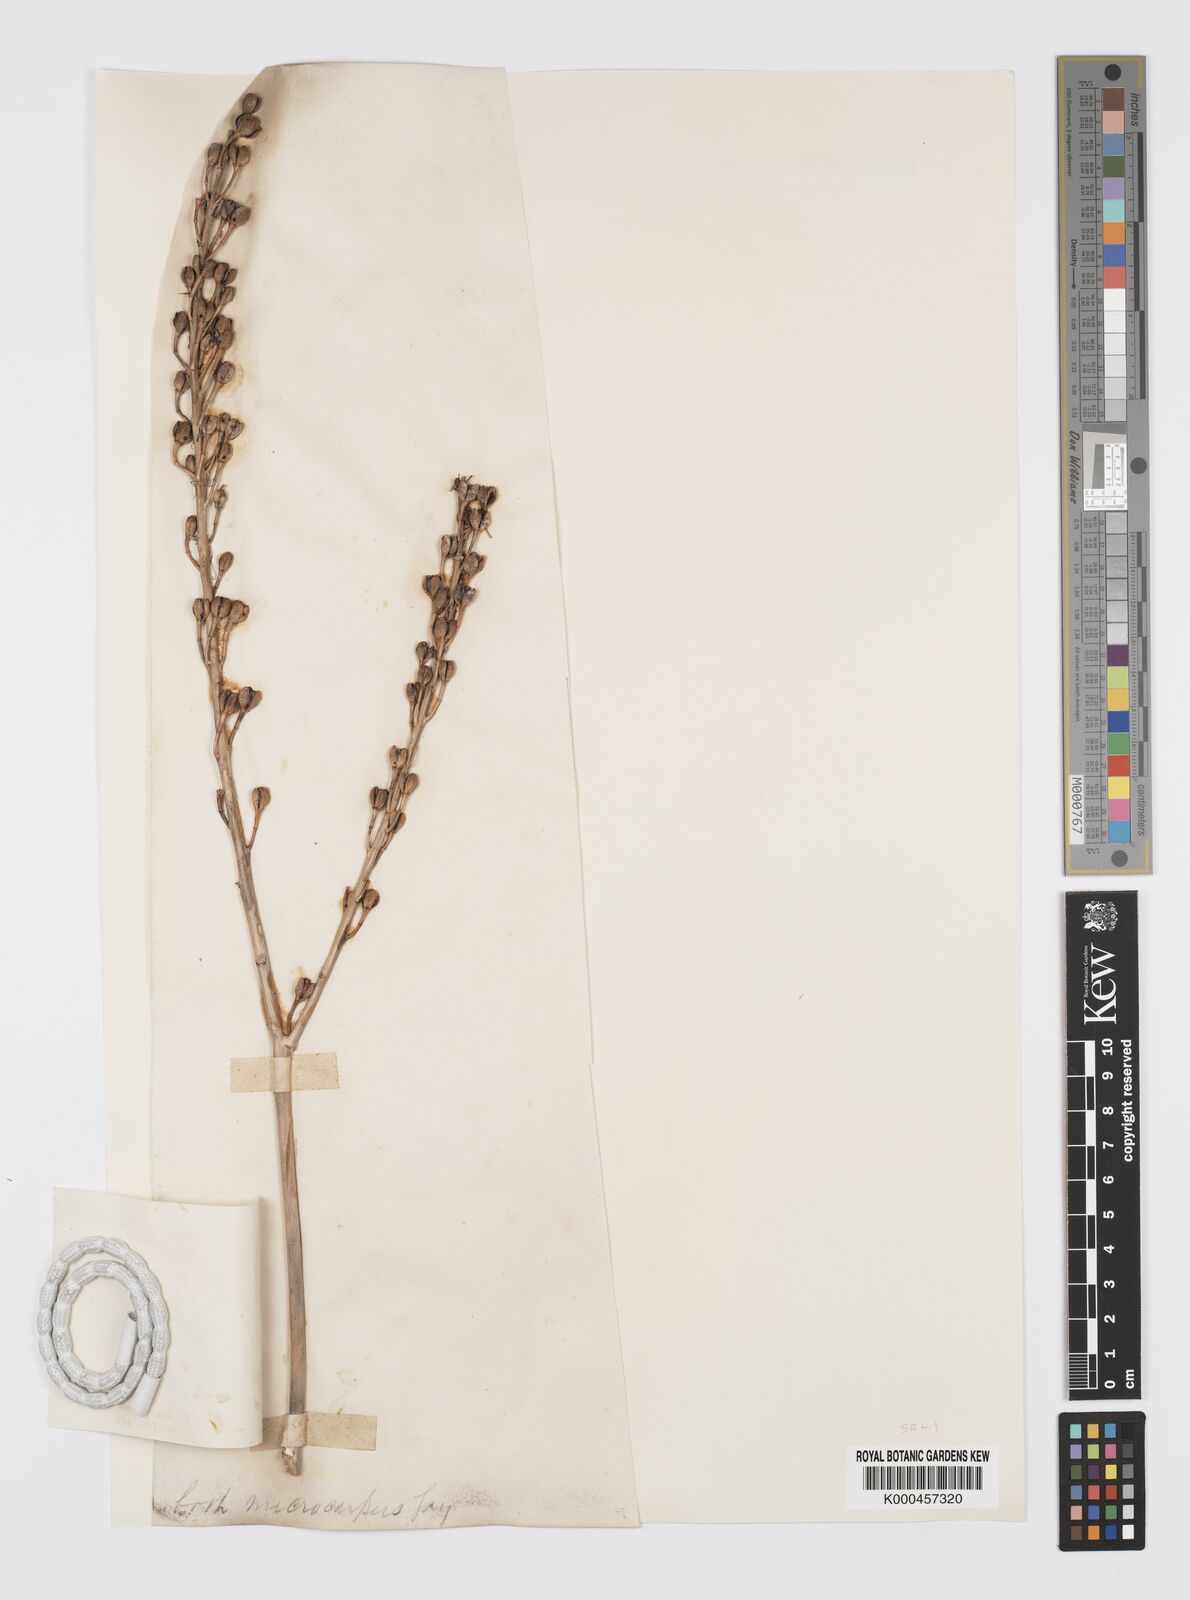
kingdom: Plantae
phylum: Tracheophyta
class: Liliopsida
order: Asparagales
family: Asphodelaceae
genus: Asphodelus
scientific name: Asphodelus aestivus
